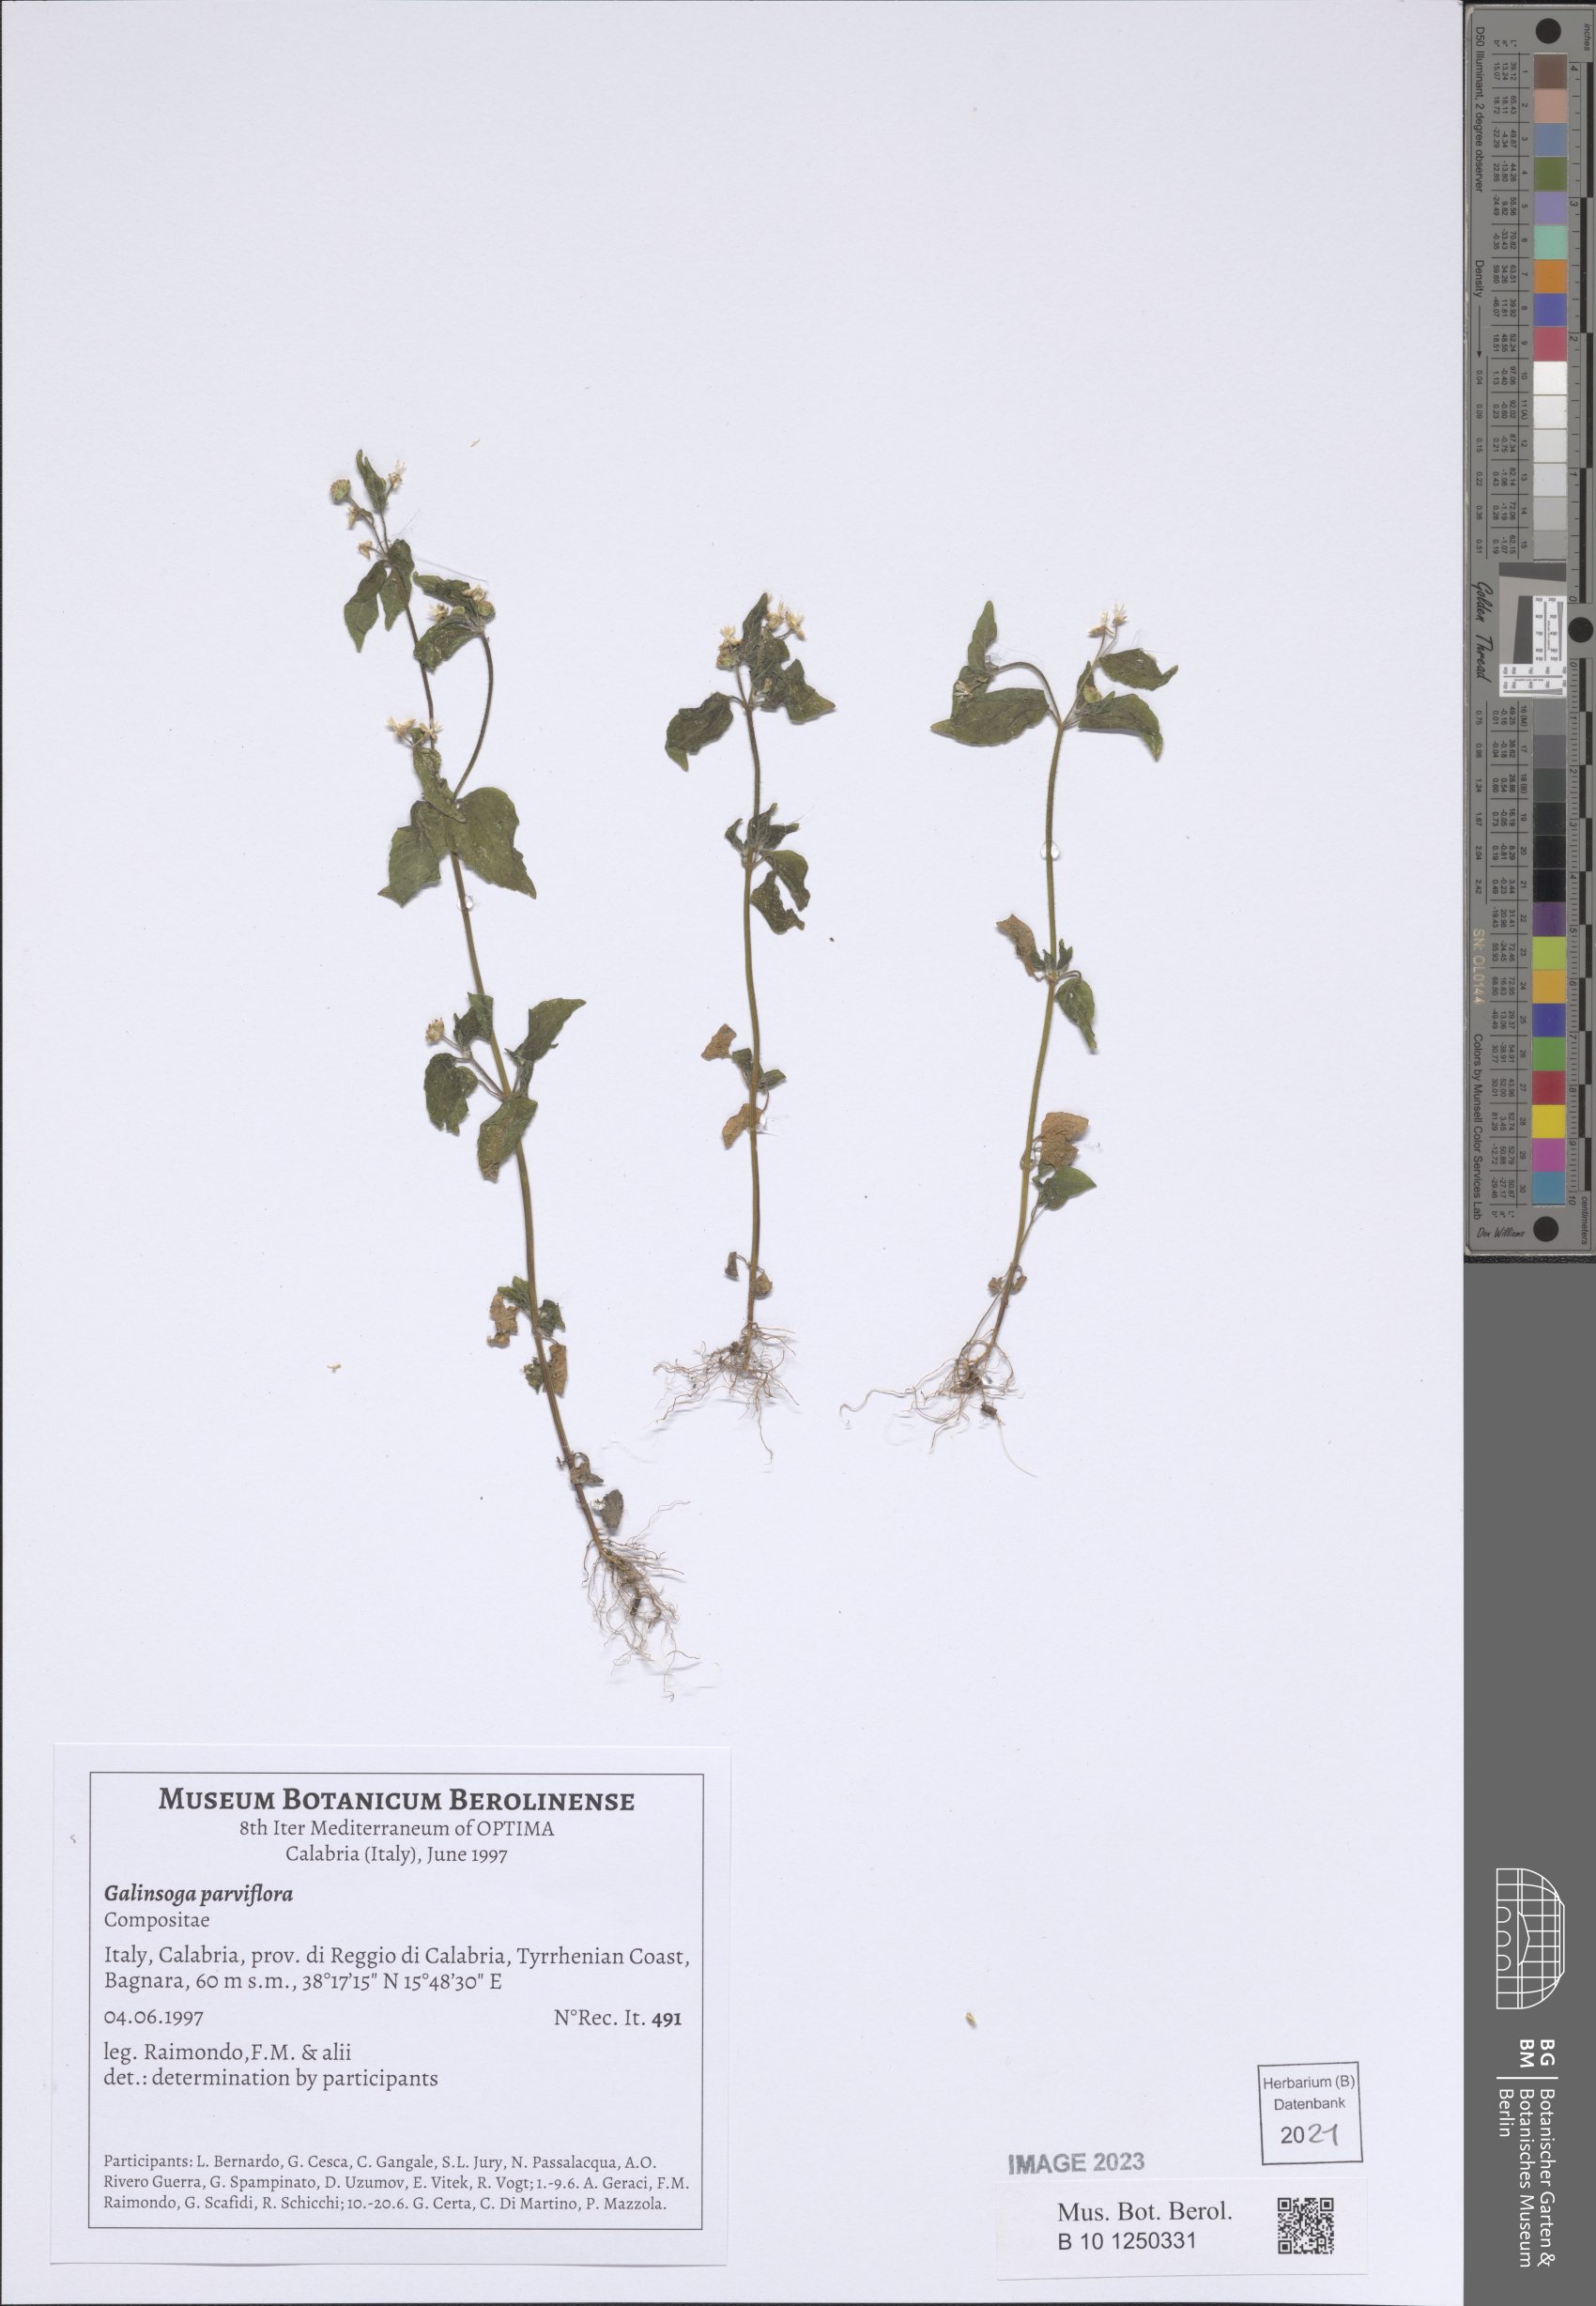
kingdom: Plantae
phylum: Tracheophyta
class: Magnoliopsida
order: Asterales
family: Asteraceae
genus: Galinsoga
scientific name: Galinsoga parviflora
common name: Gallant soldier
